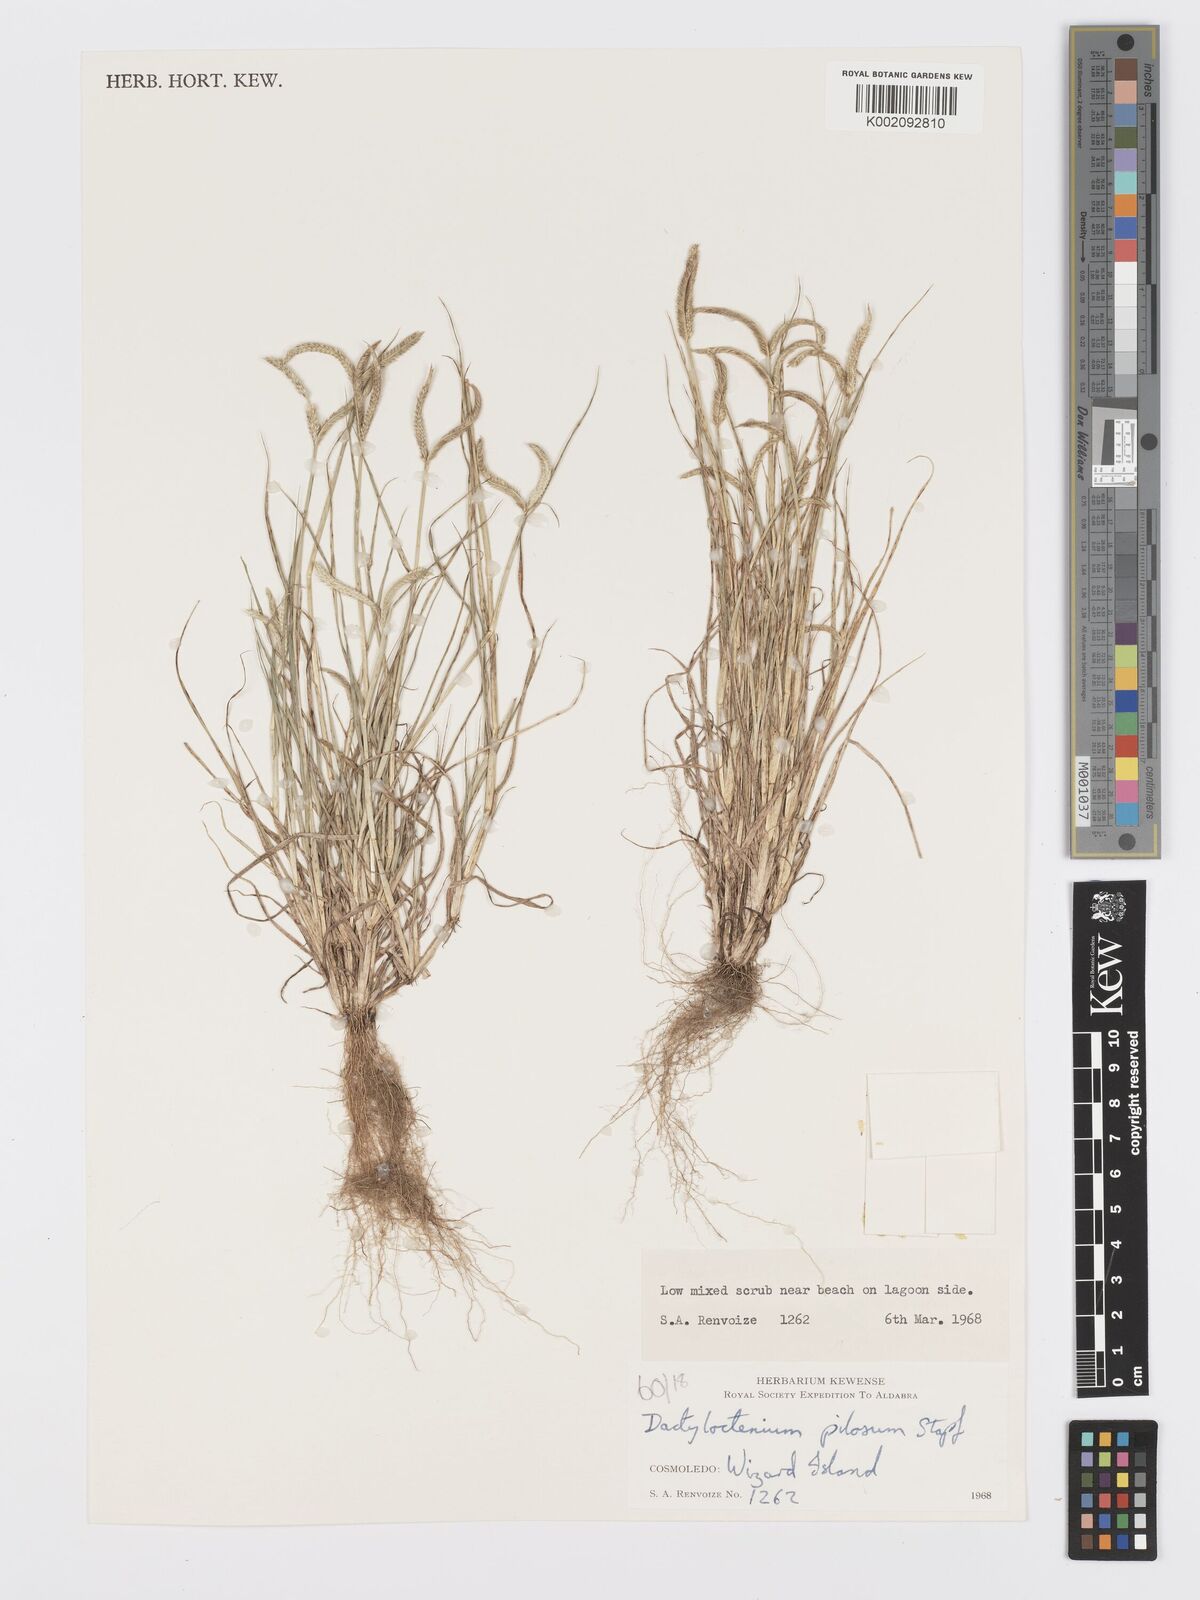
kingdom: Plantae
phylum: Tracheophyta
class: Liliopsida
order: Poales
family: Poaceae
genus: Dactyloctenium
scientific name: Dactyloctenium pilosum
